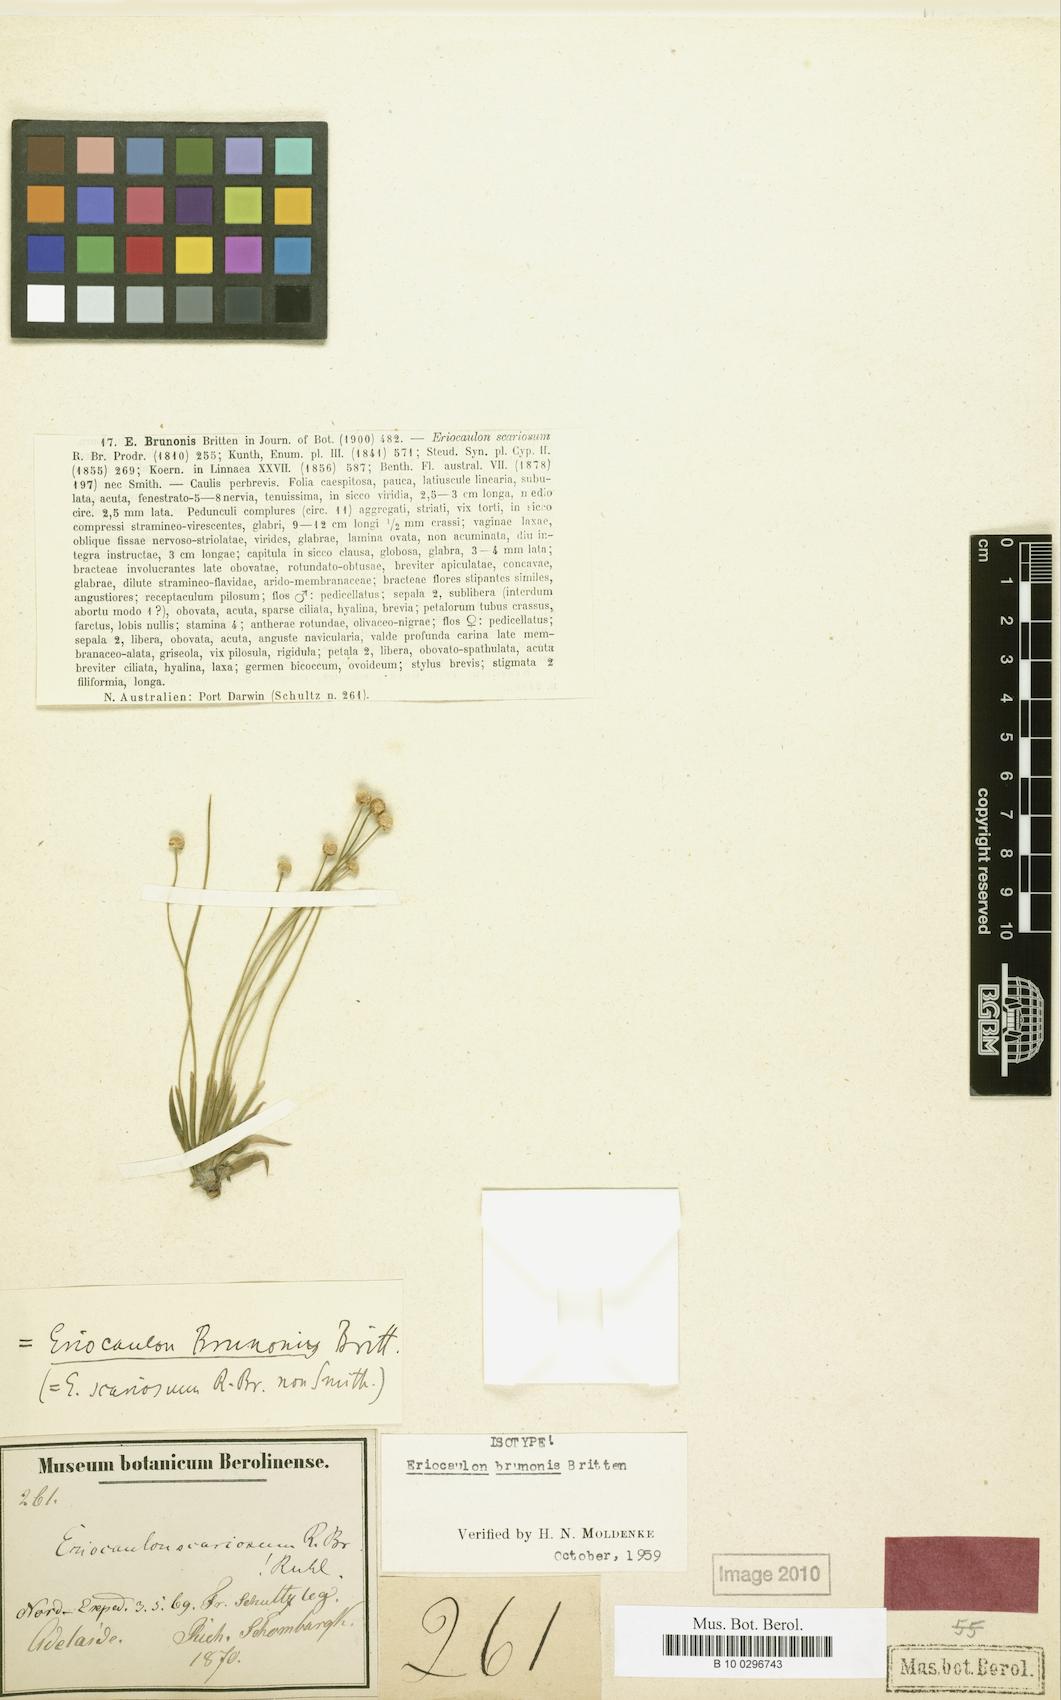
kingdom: Plantae
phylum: Tracheophyta
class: Liliopsida
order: Poales
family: Eriocaulaceae
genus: Eriocaulon
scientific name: Eriocaulon brunonis
